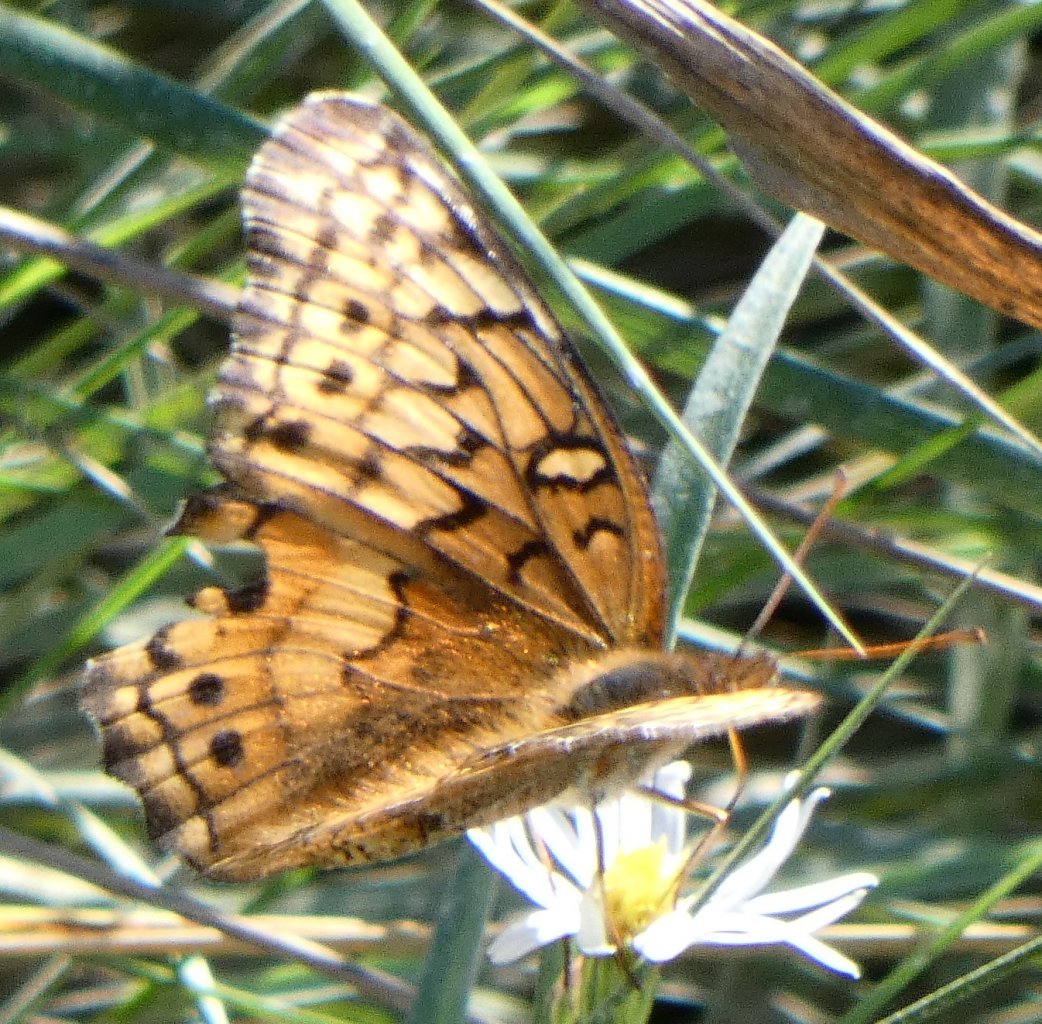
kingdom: Animalia
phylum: Arthropoda
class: Insecta
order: Lepidoptera
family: Nymphalidae
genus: Euptoieta
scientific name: Euptoieta claudia
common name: Variegated Fritillary
